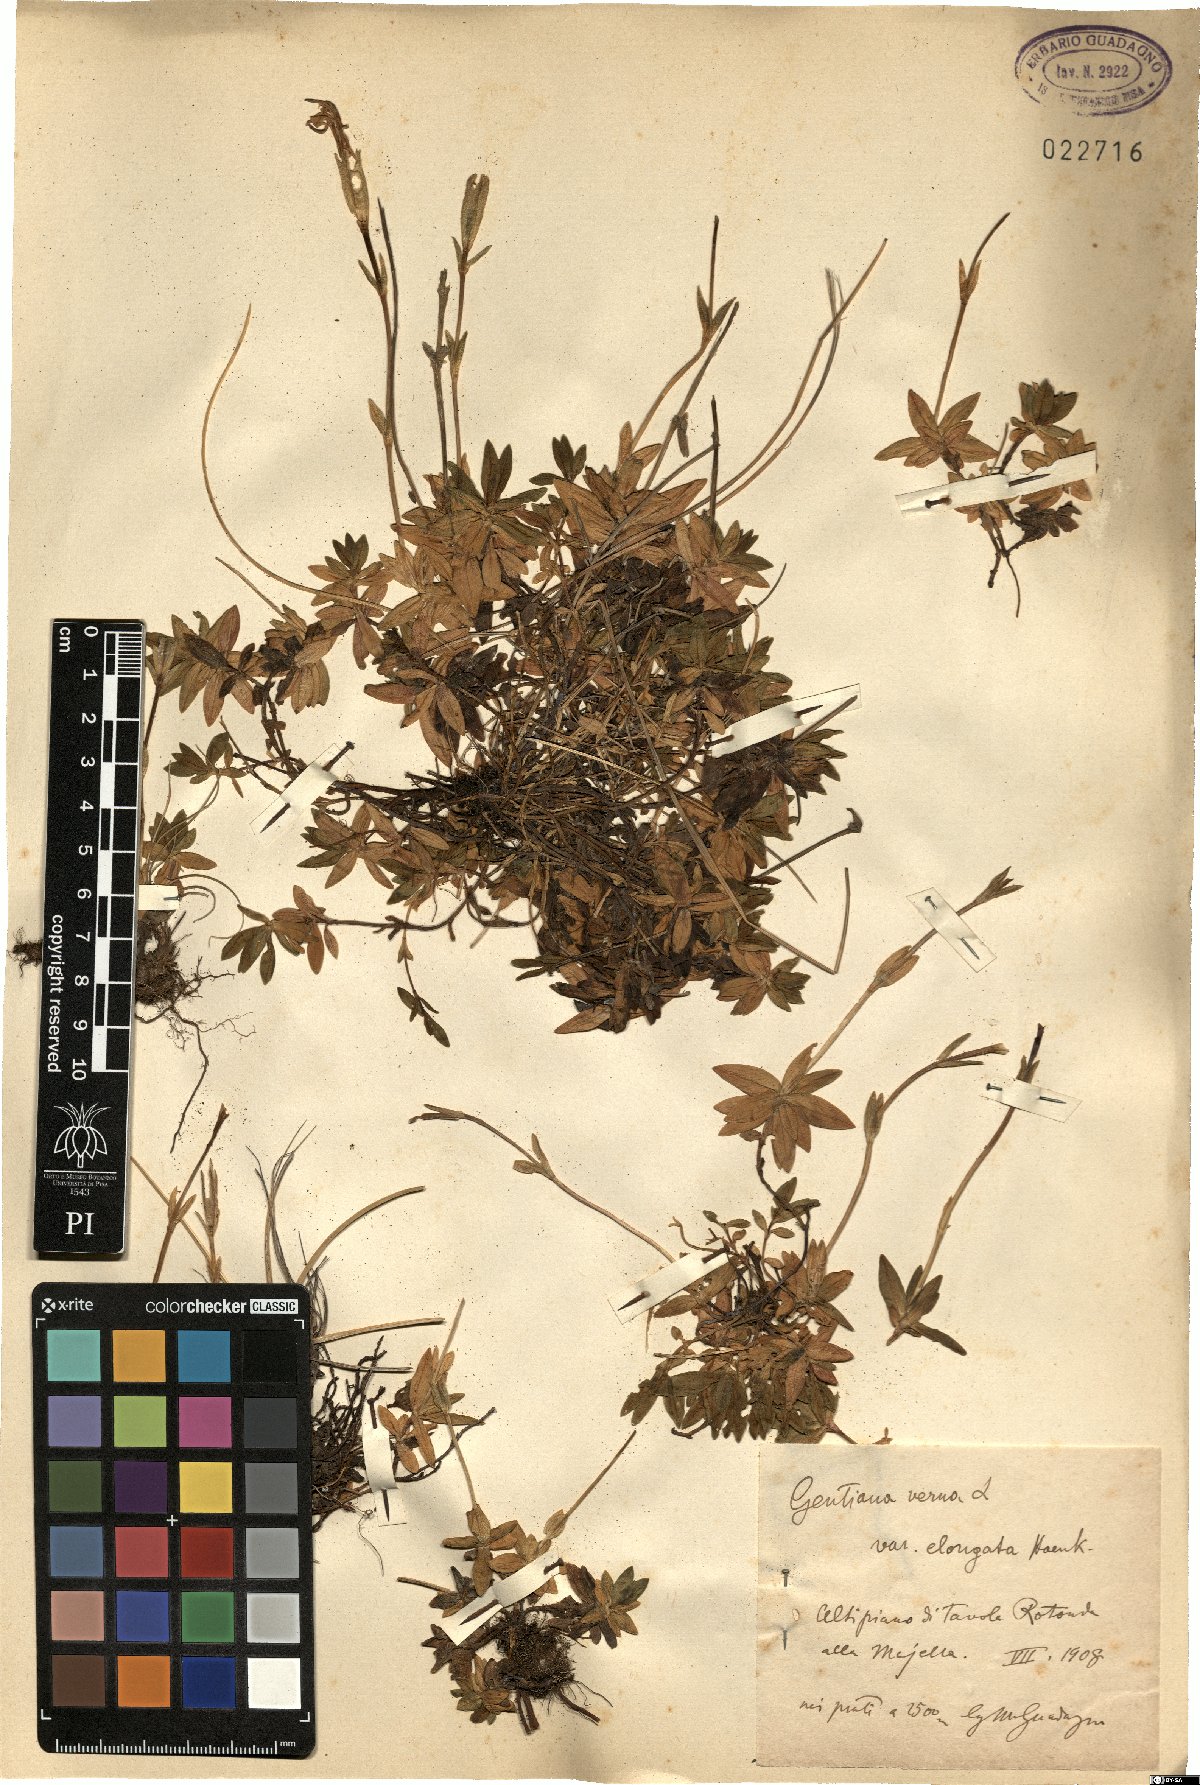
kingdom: Plantae
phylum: Tracheophyta
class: Magnoliopsida
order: Gentianales
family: Gentianaceae
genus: Gentiana
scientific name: Gentiana verna
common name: Spring gentian
